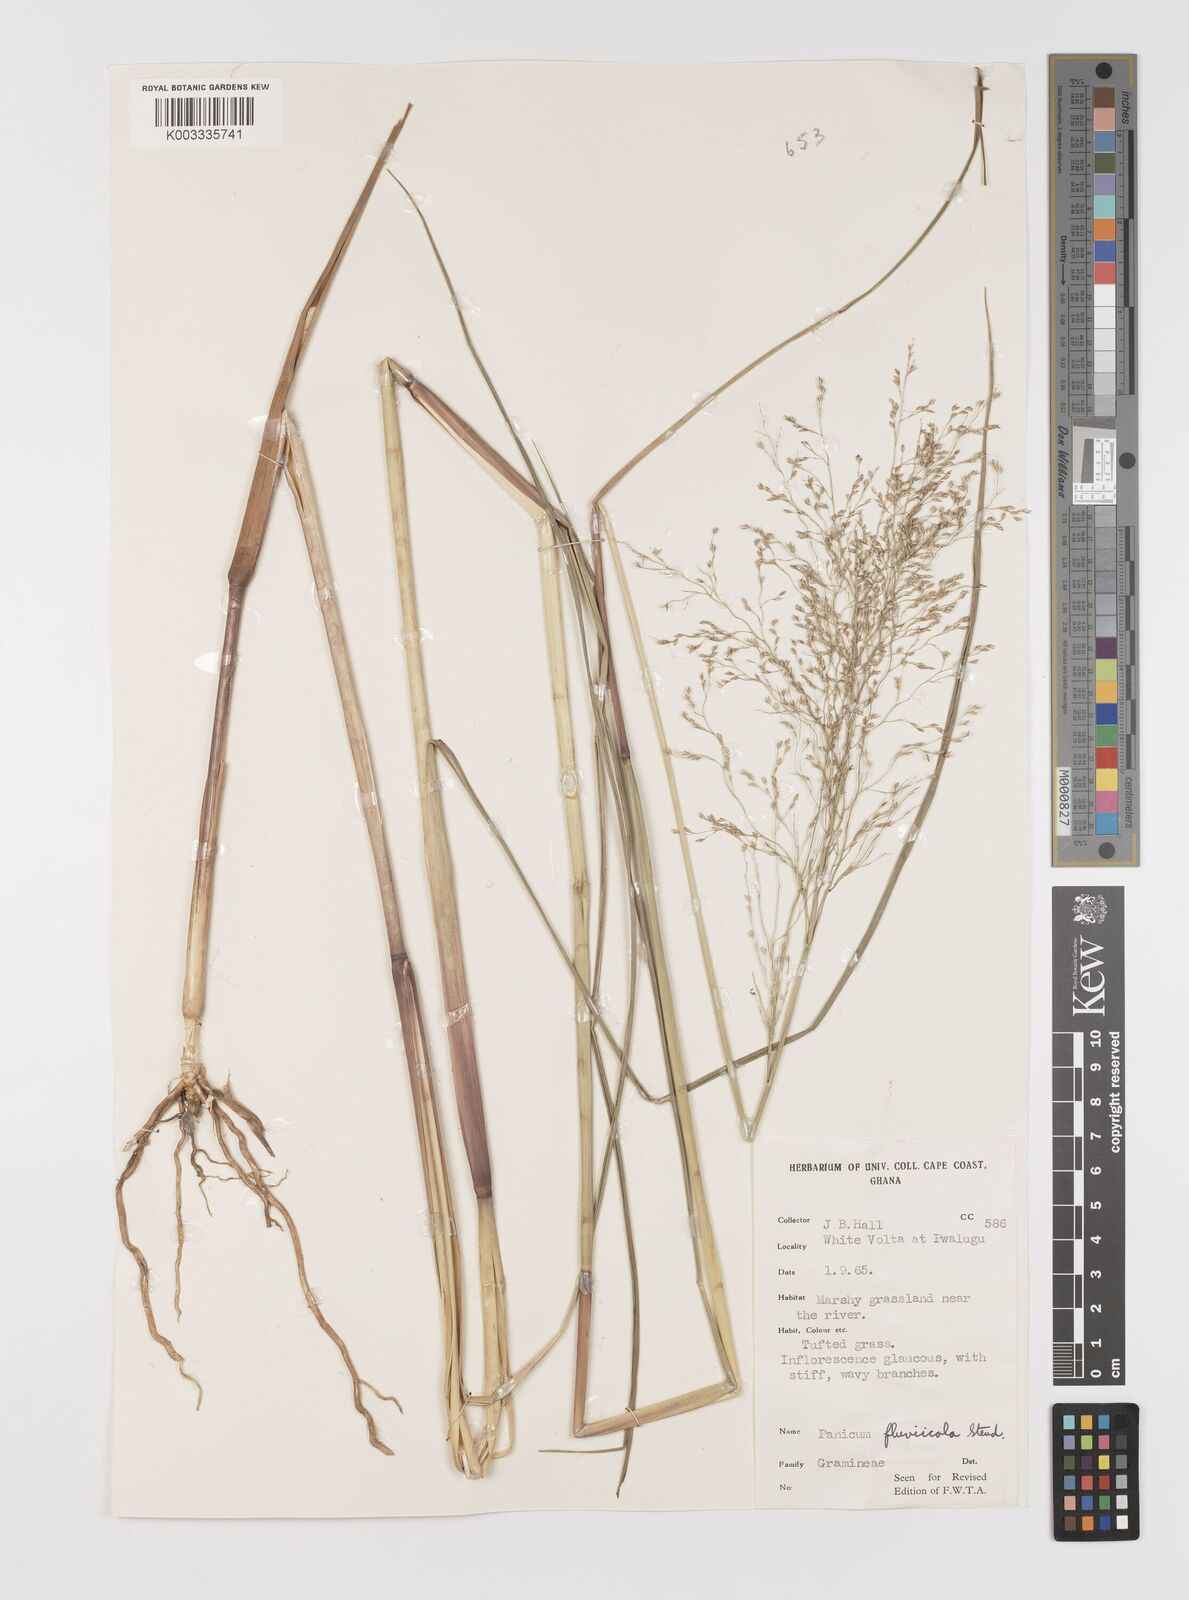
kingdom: Plantae
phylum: Tracheophyta
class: Liliopsida
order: Poales
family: Poaceae
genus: Panicum
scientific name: Panicum fluviicola
